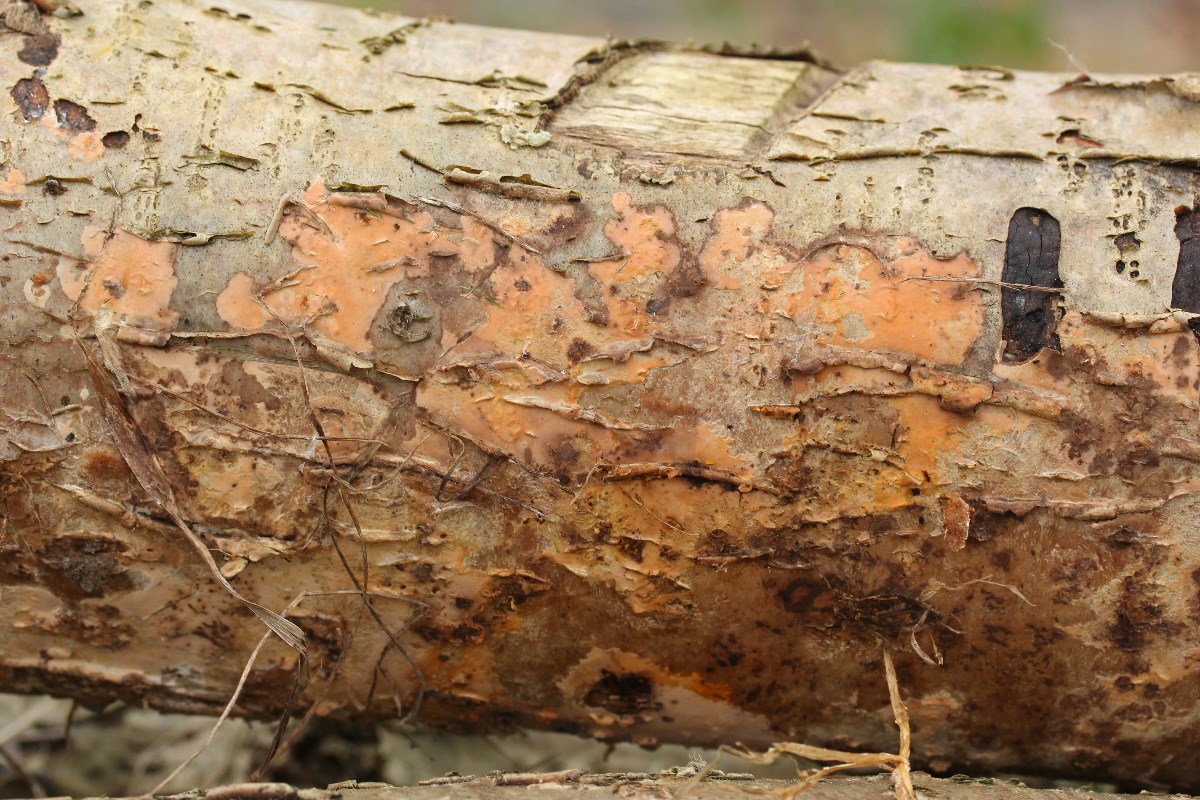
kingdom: Fungi
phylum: Basidiomycota
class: Agaricomycetes
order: Russulales
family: Peniophoraceae
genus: Peniophora
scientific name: Peniophora incarnata
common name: laksefarvet voksskind
